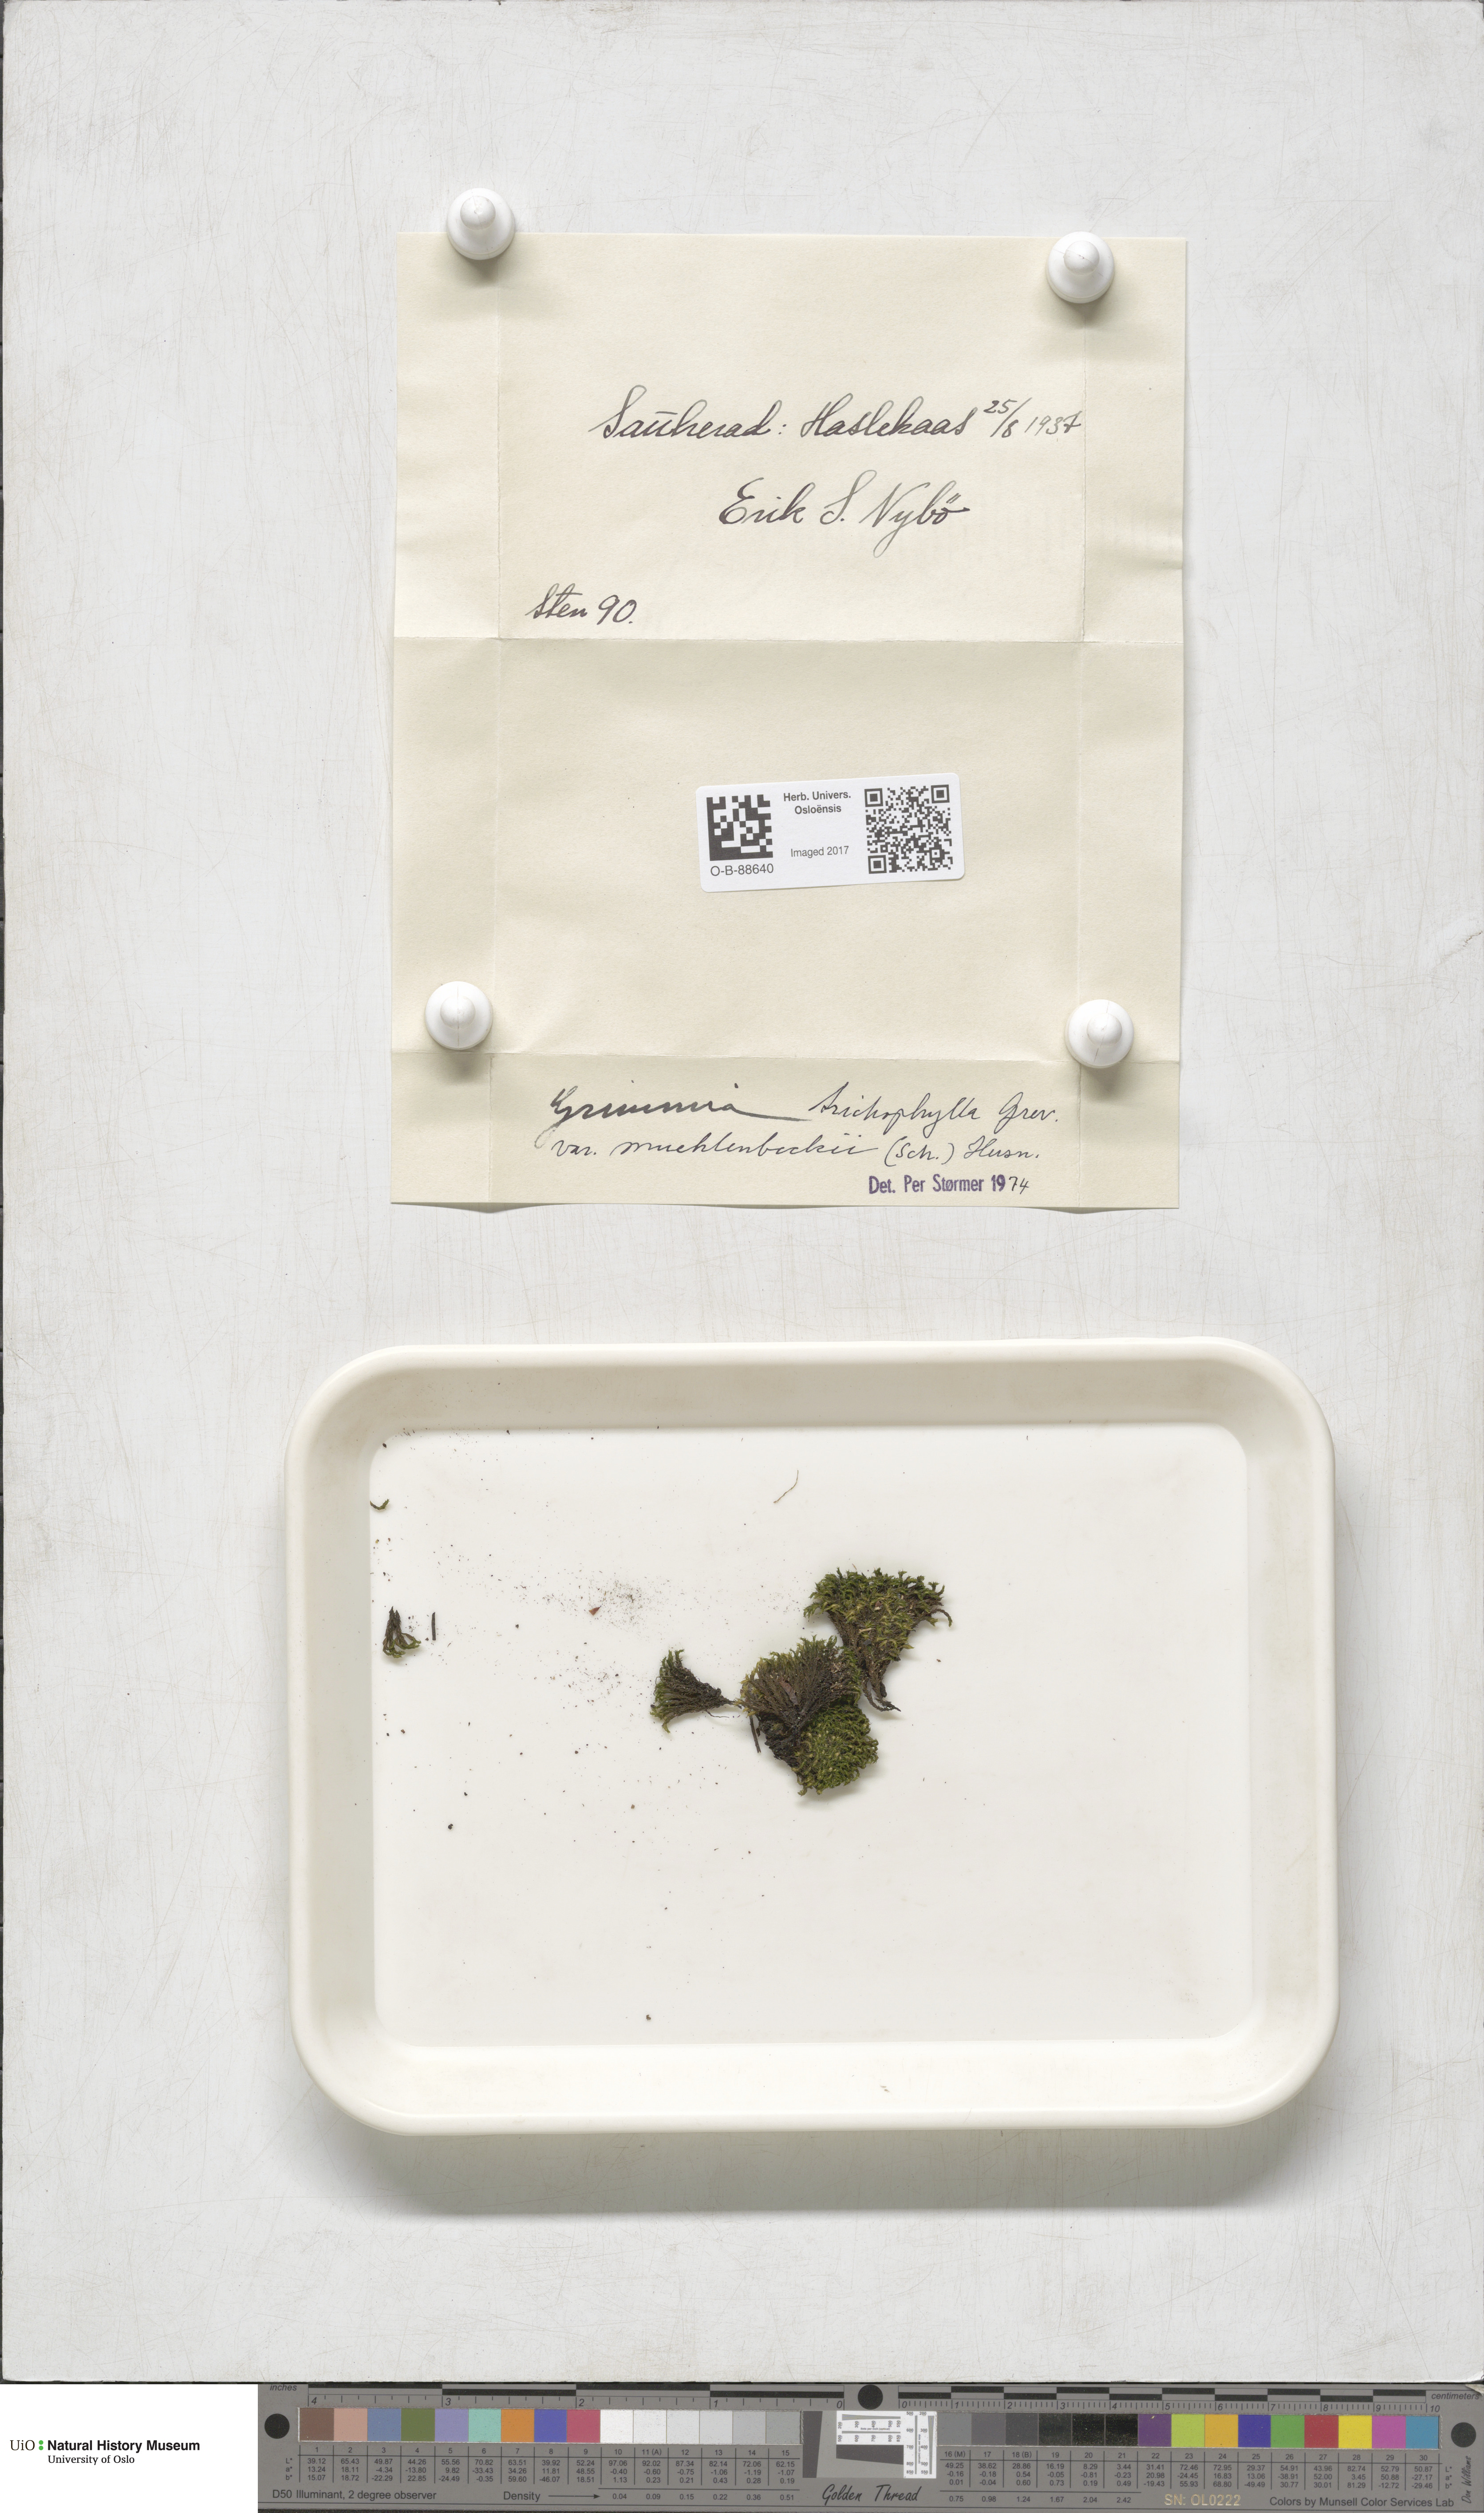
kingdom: Plantae
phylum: Bryophyta
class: Bryopsida
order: Grimmiales
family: Grimmiaceae
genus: Grimmia
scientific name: Grimmia trichophylla
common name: Hair-pointed grimmia
